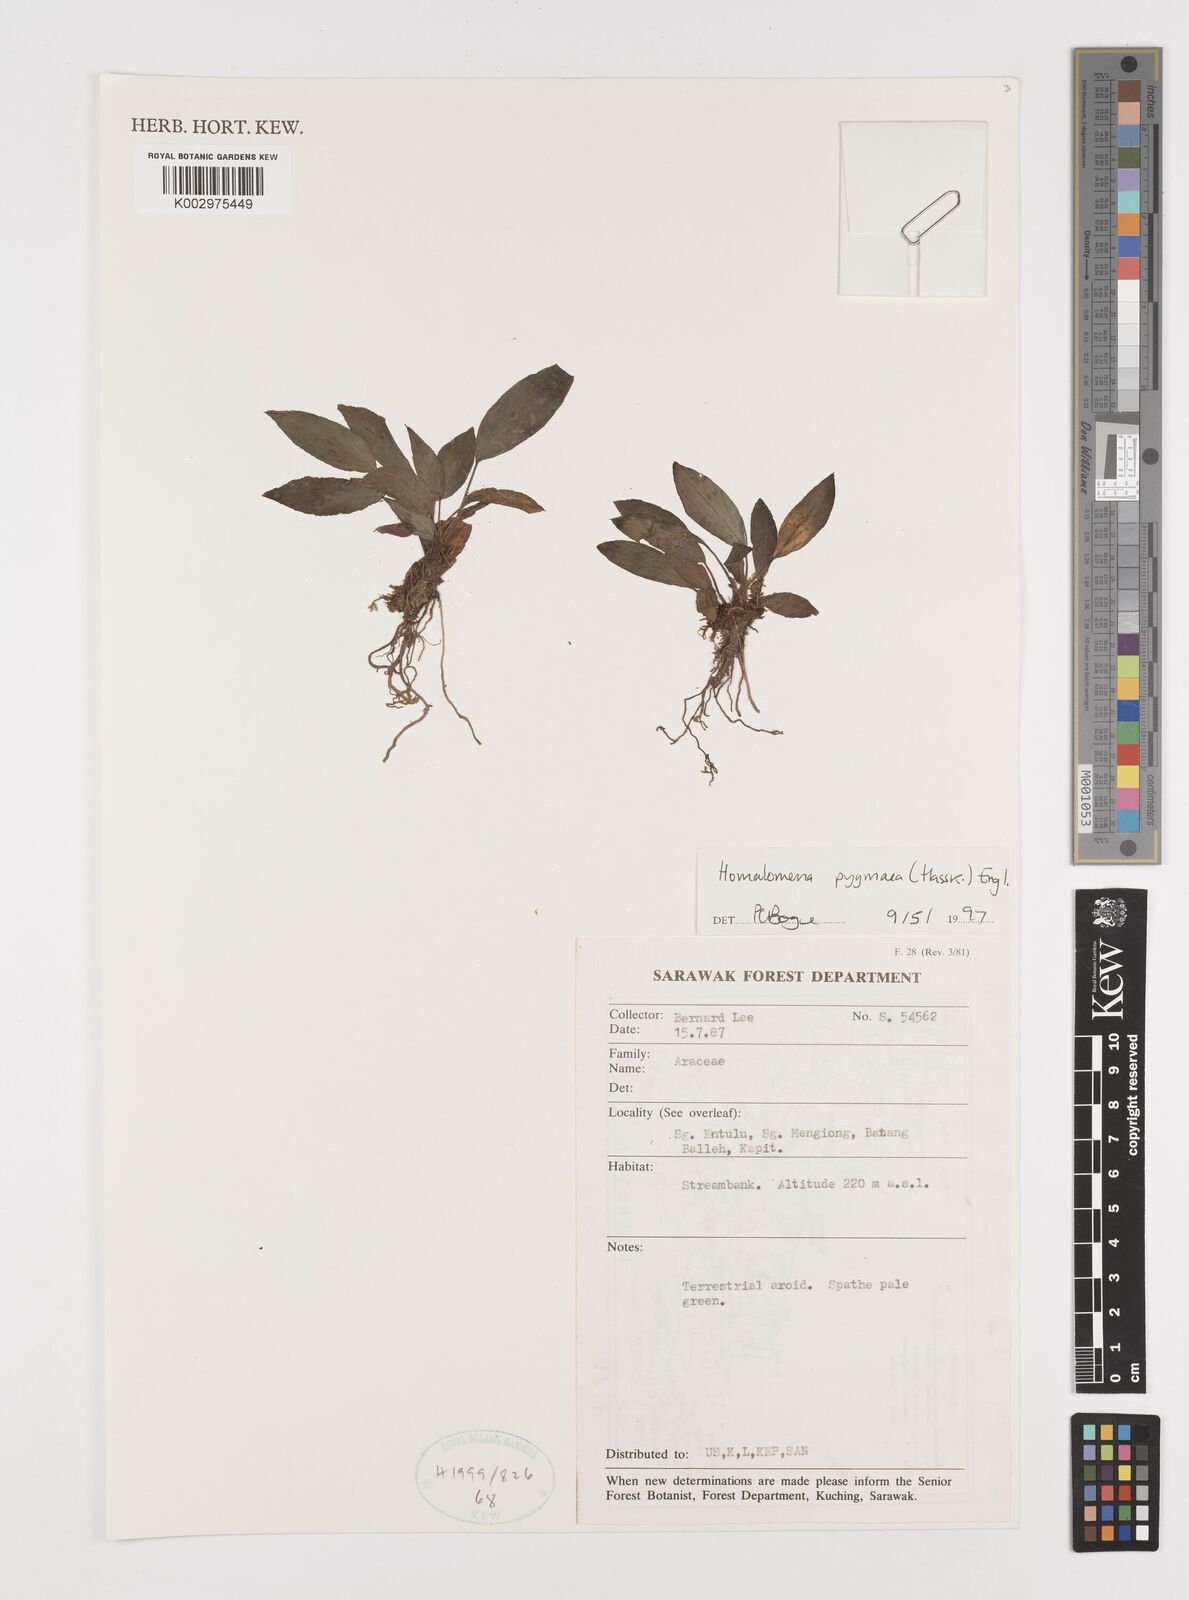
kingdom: Plantae
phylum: Tracheophyta
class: Liliopsida
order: Alismatales
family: Araceae
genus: Homalomena
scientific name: Homalomena humilis
